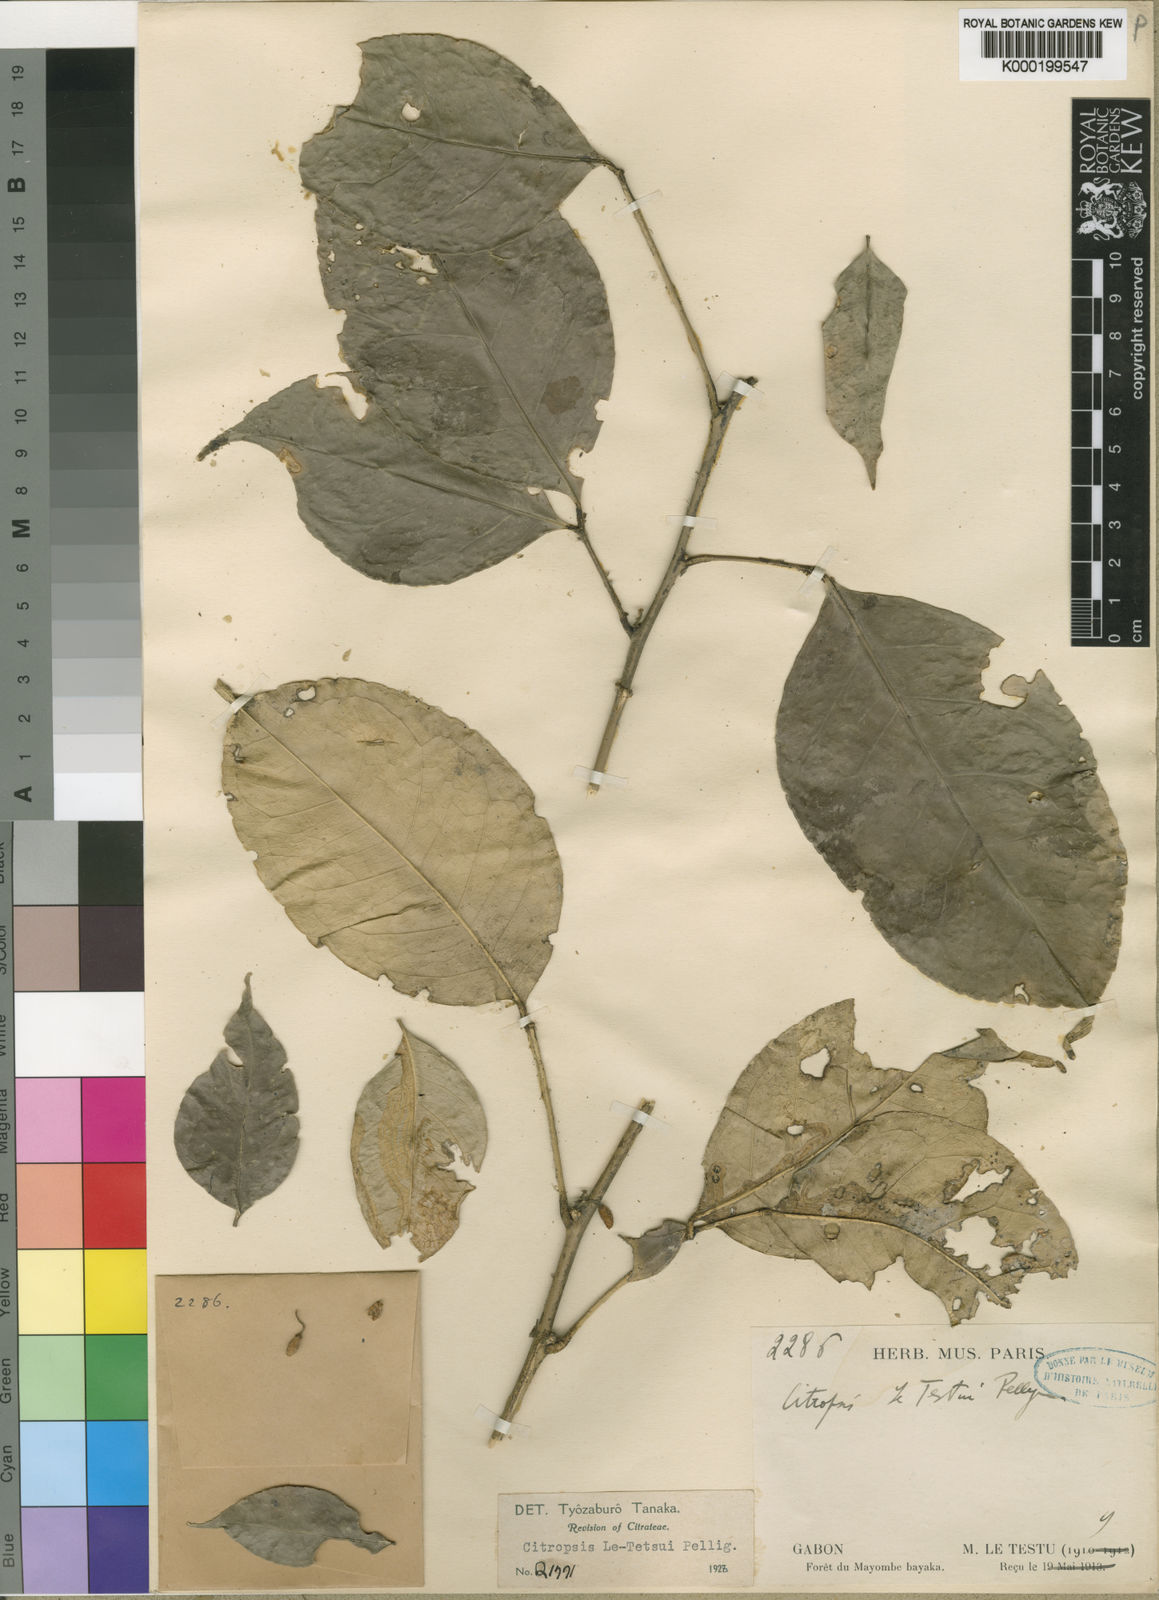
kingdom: Plantae
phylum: Tracheophyta
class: Magnoliopsida
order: Sapindales
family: Rutaceae
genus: Citropsis
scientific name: Citropsis letestui
